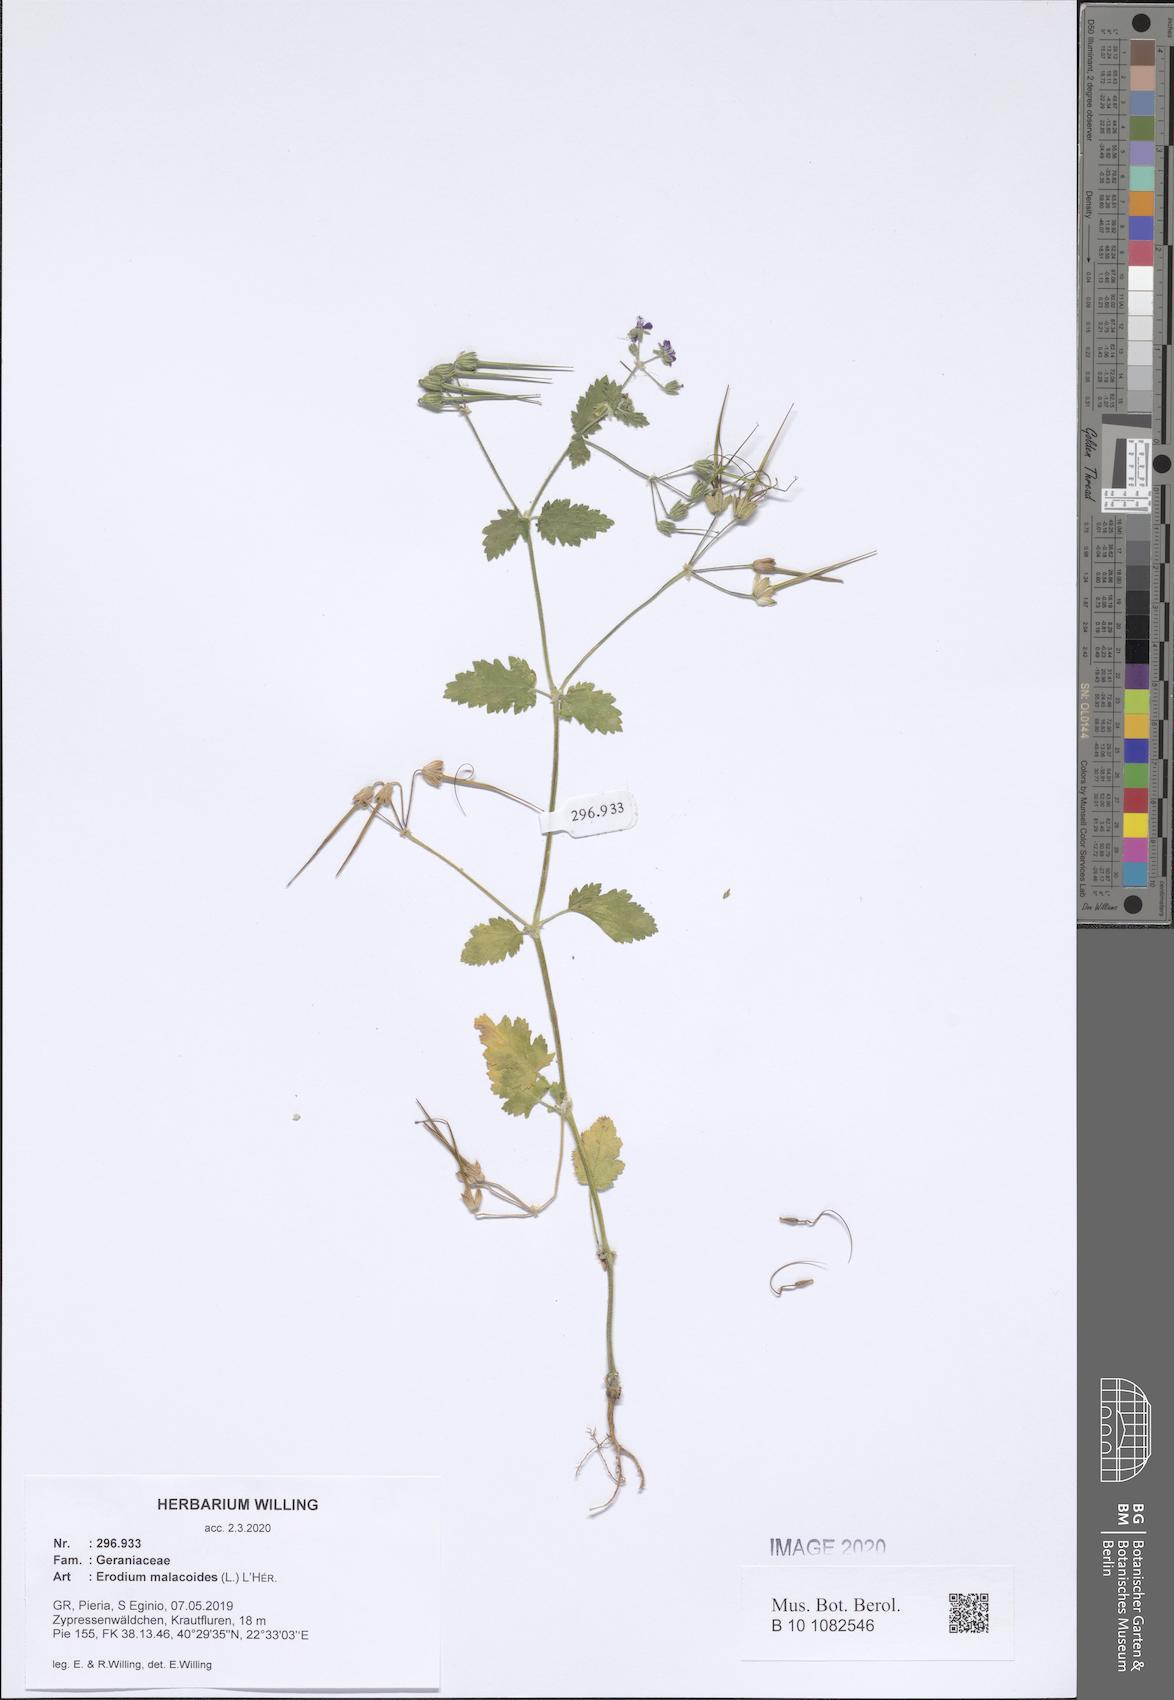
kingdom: Plantae
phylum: Tracheophyta
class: Magnoliopsida
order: Geraniales
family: Geraniaceae
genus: Erodium
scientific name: Erodium malacoides
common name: Soft stork's-bill
